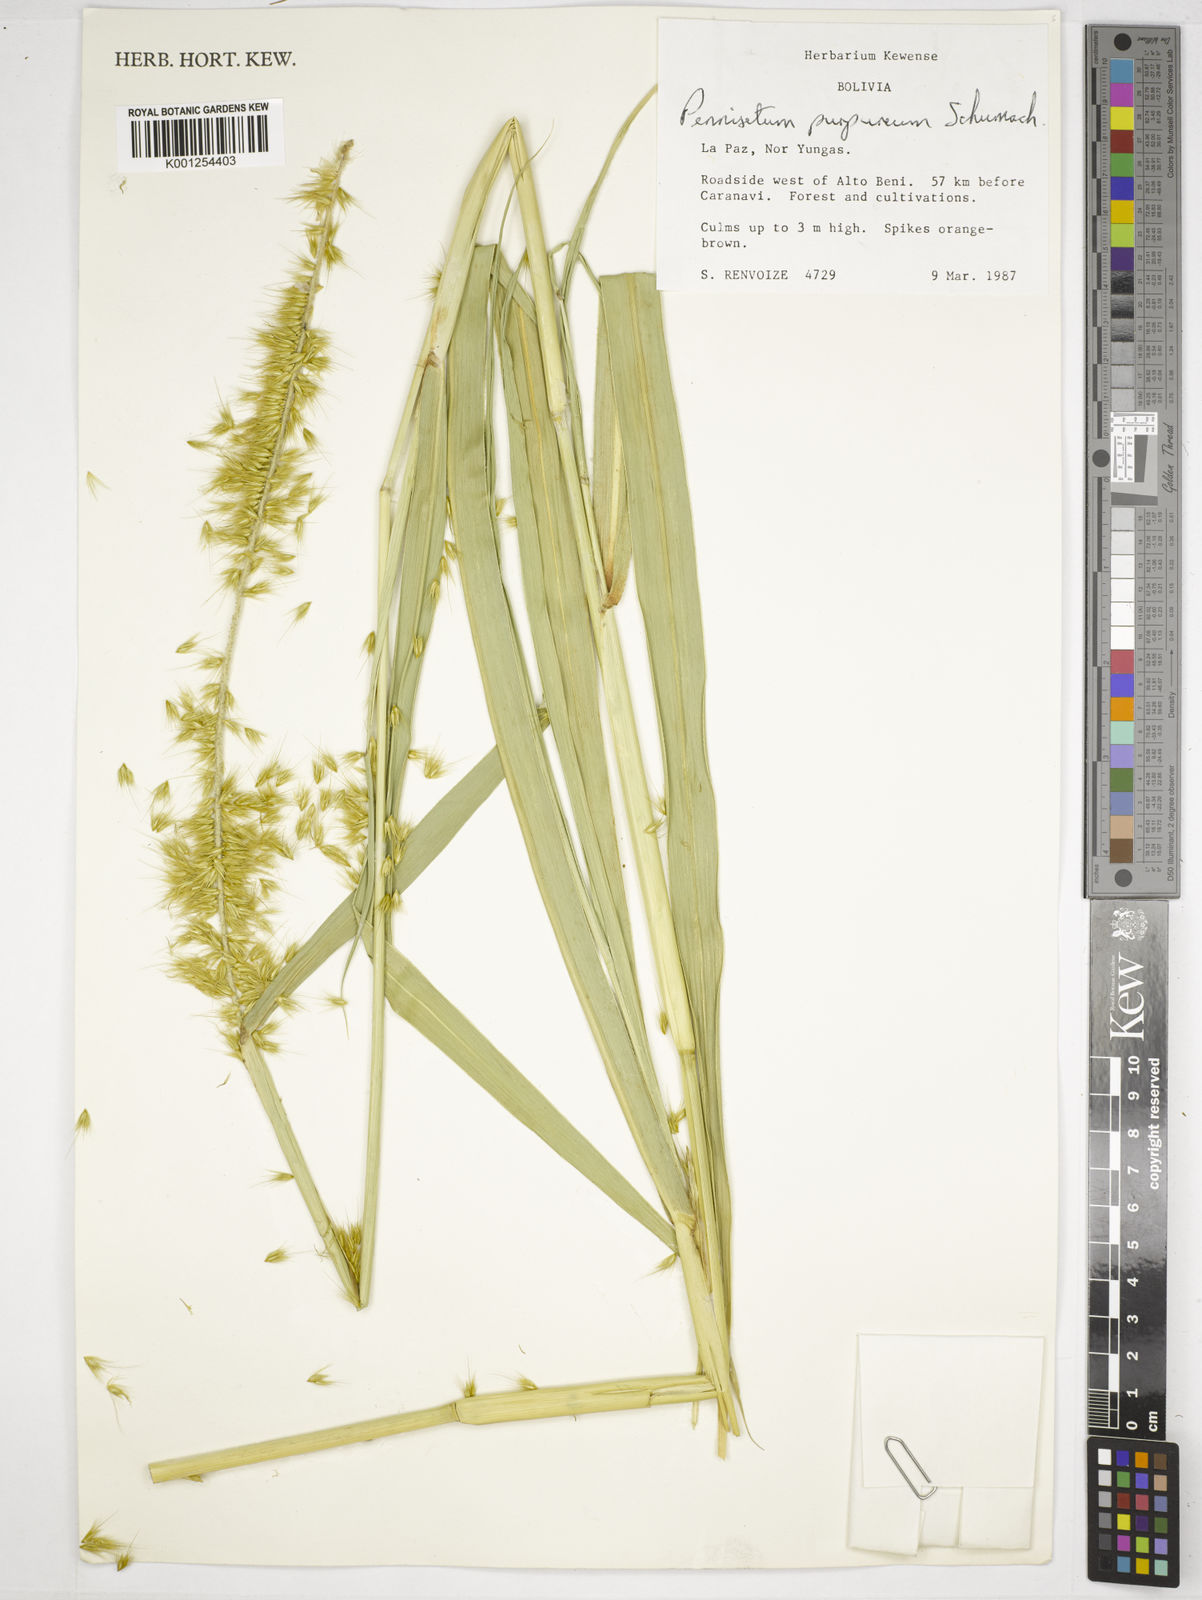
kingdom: Plantae
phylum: Tracheophyta
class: Liliopsida
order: Poales
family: Poaceae
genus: Cenchrus
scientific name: Cenchrus purpureus
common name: Elephant grass
